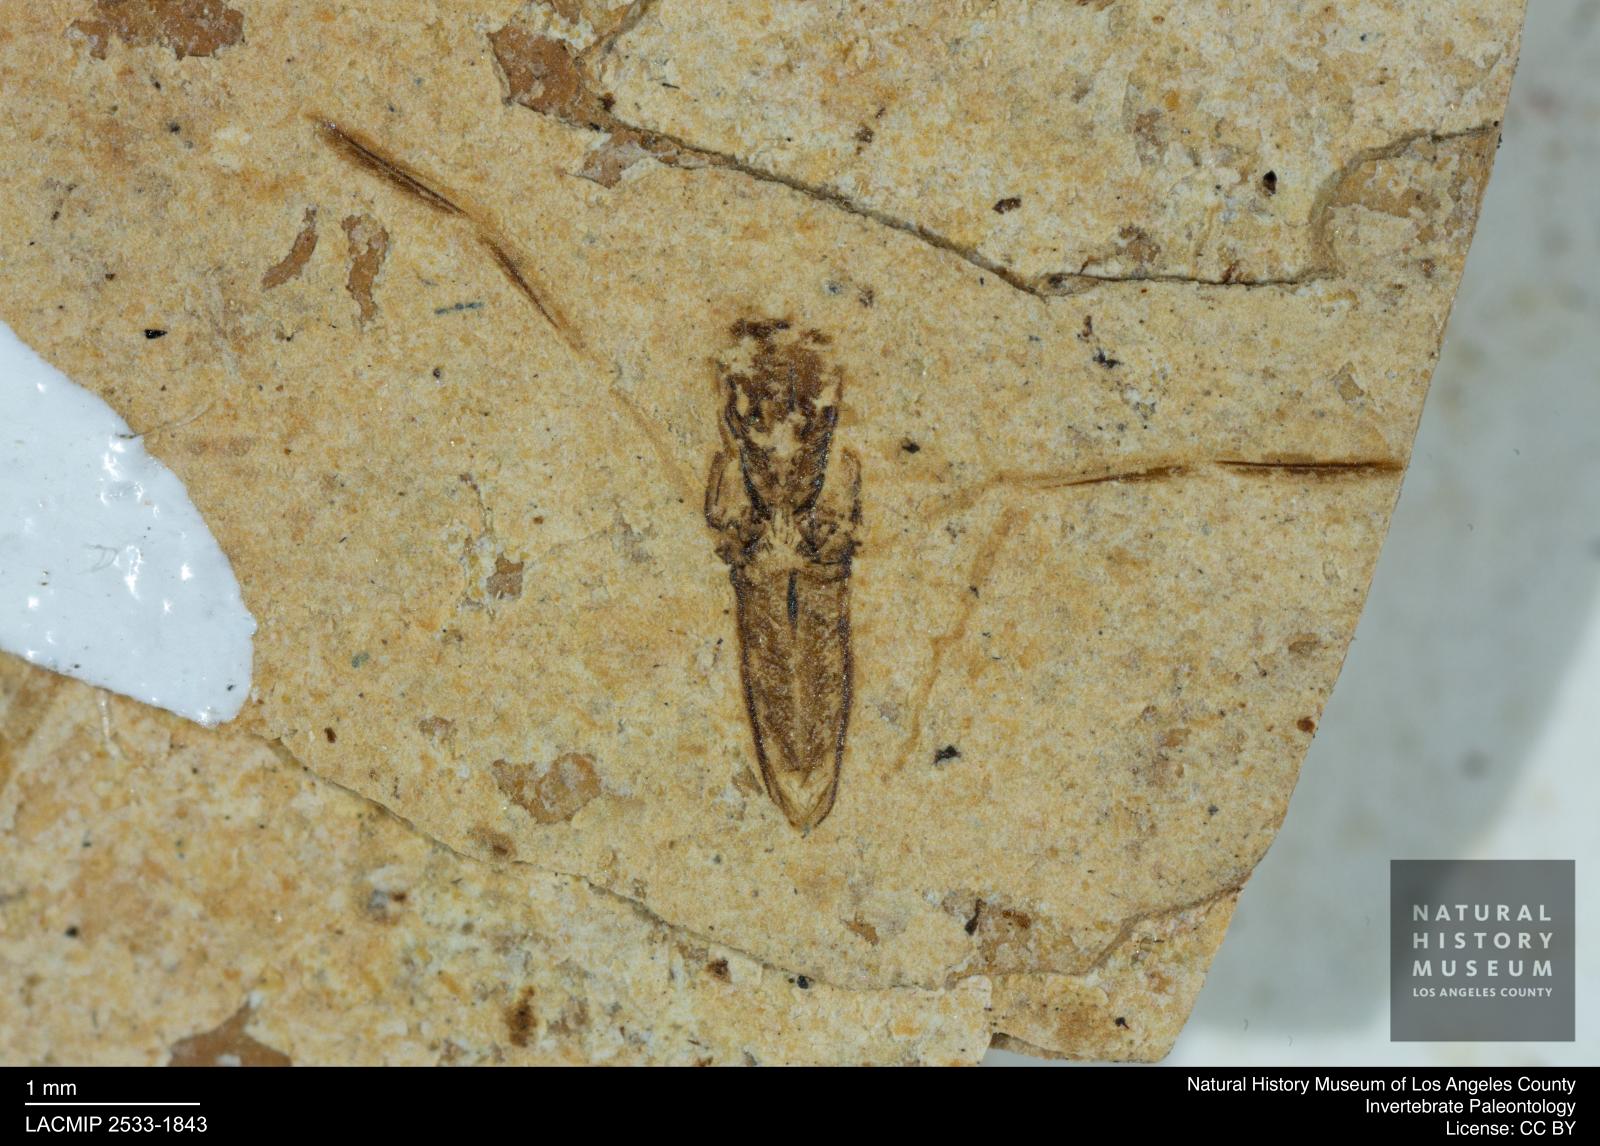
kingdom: Animalia
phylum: Arthropoda
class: Insecta
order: Hemiptera
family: Notonectidae
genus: Notonecta
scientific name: Notonecta
